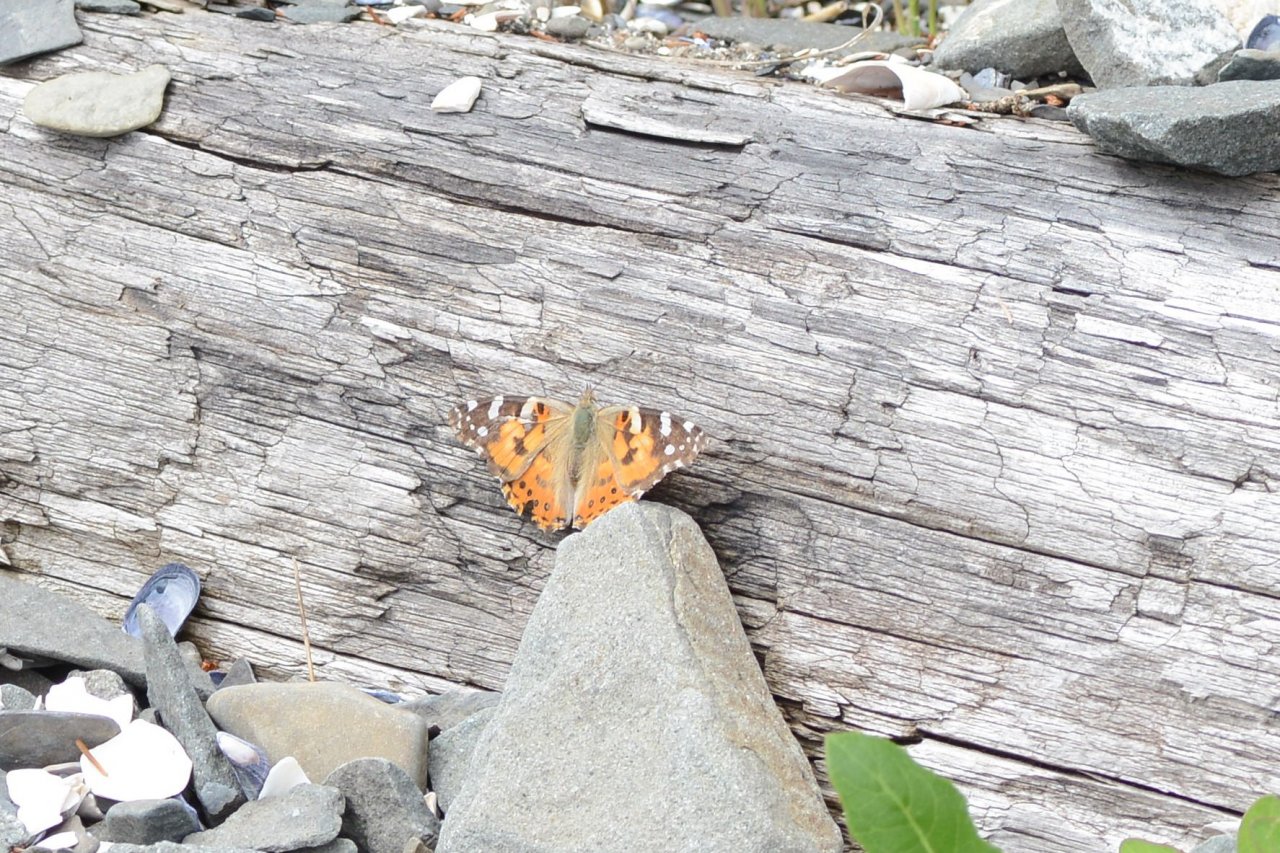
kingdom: Animalia
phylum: Arthropoda
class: Insecta
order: Lepidoptera
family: Nymphalidae
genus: Vanessa
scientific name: Vanessa cardui
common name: Painted Lady
